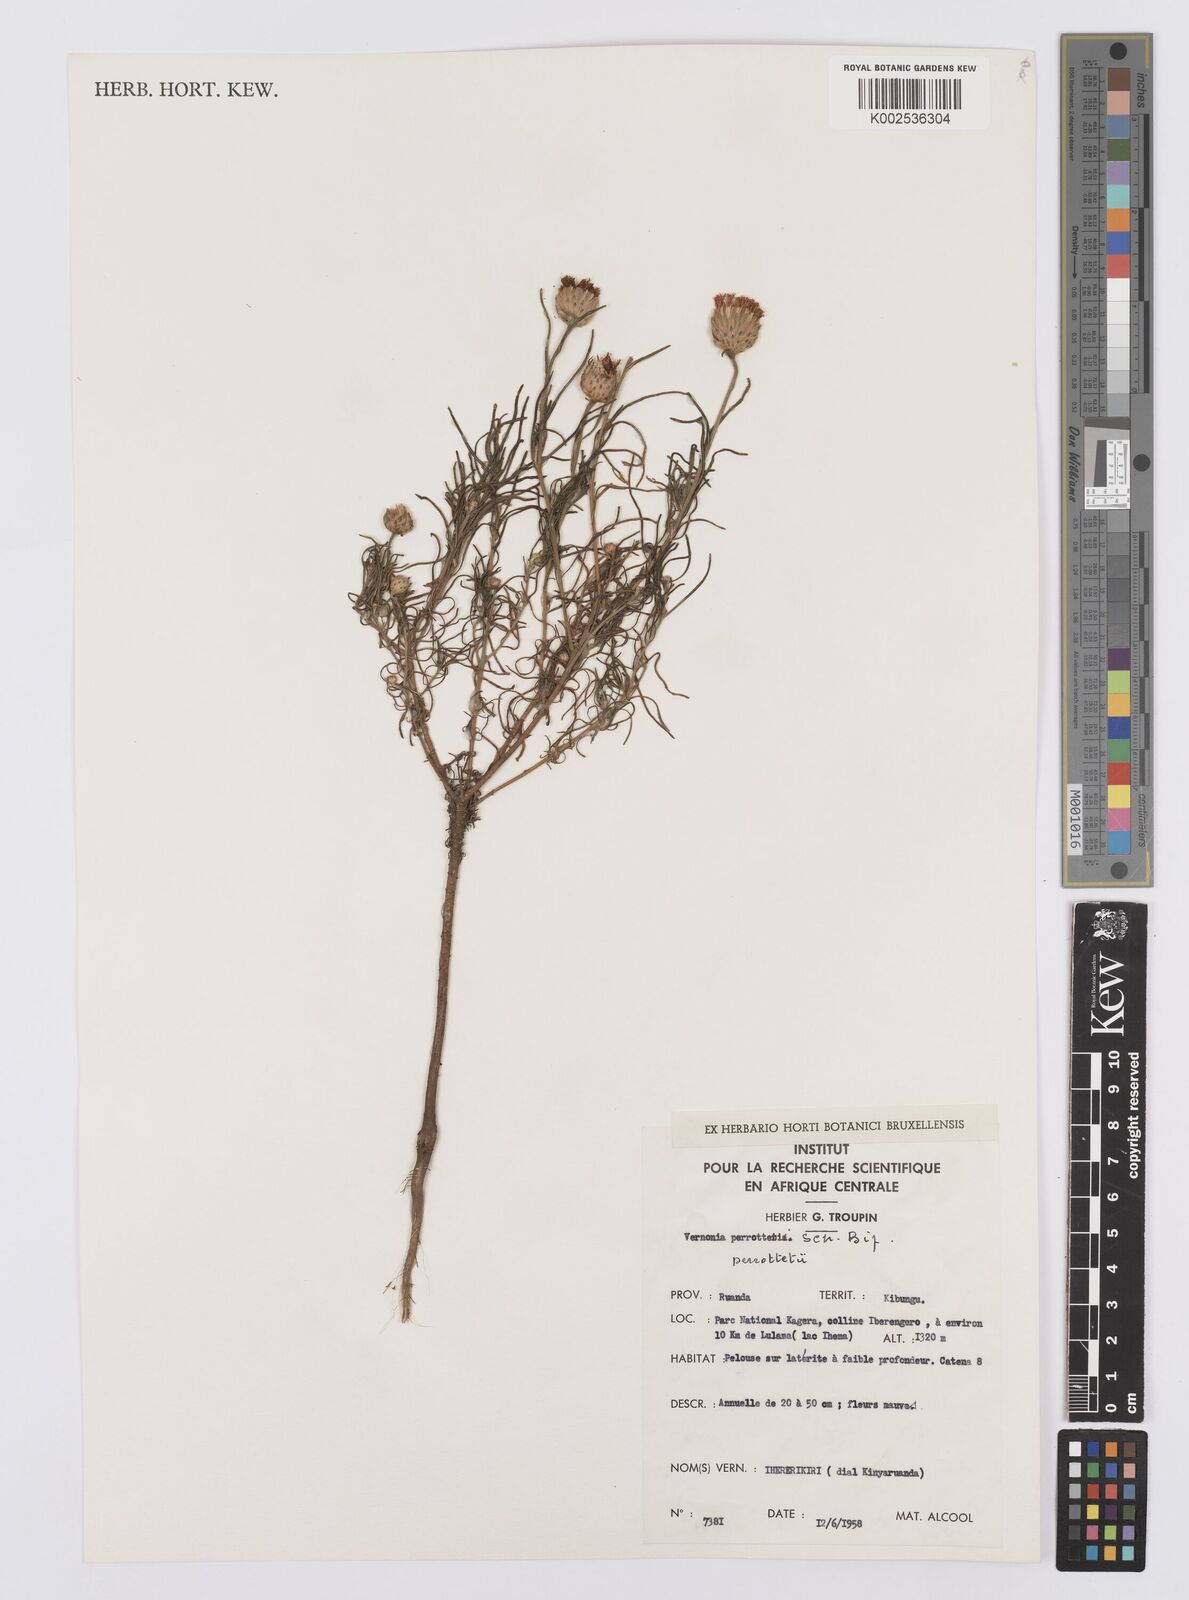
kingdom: Plantae
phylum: Tracheophyta
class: Magnoliopsida
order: Asterales
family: Asteraceae
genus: Crystallopollen
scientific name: Crystallopollen serratuloides
